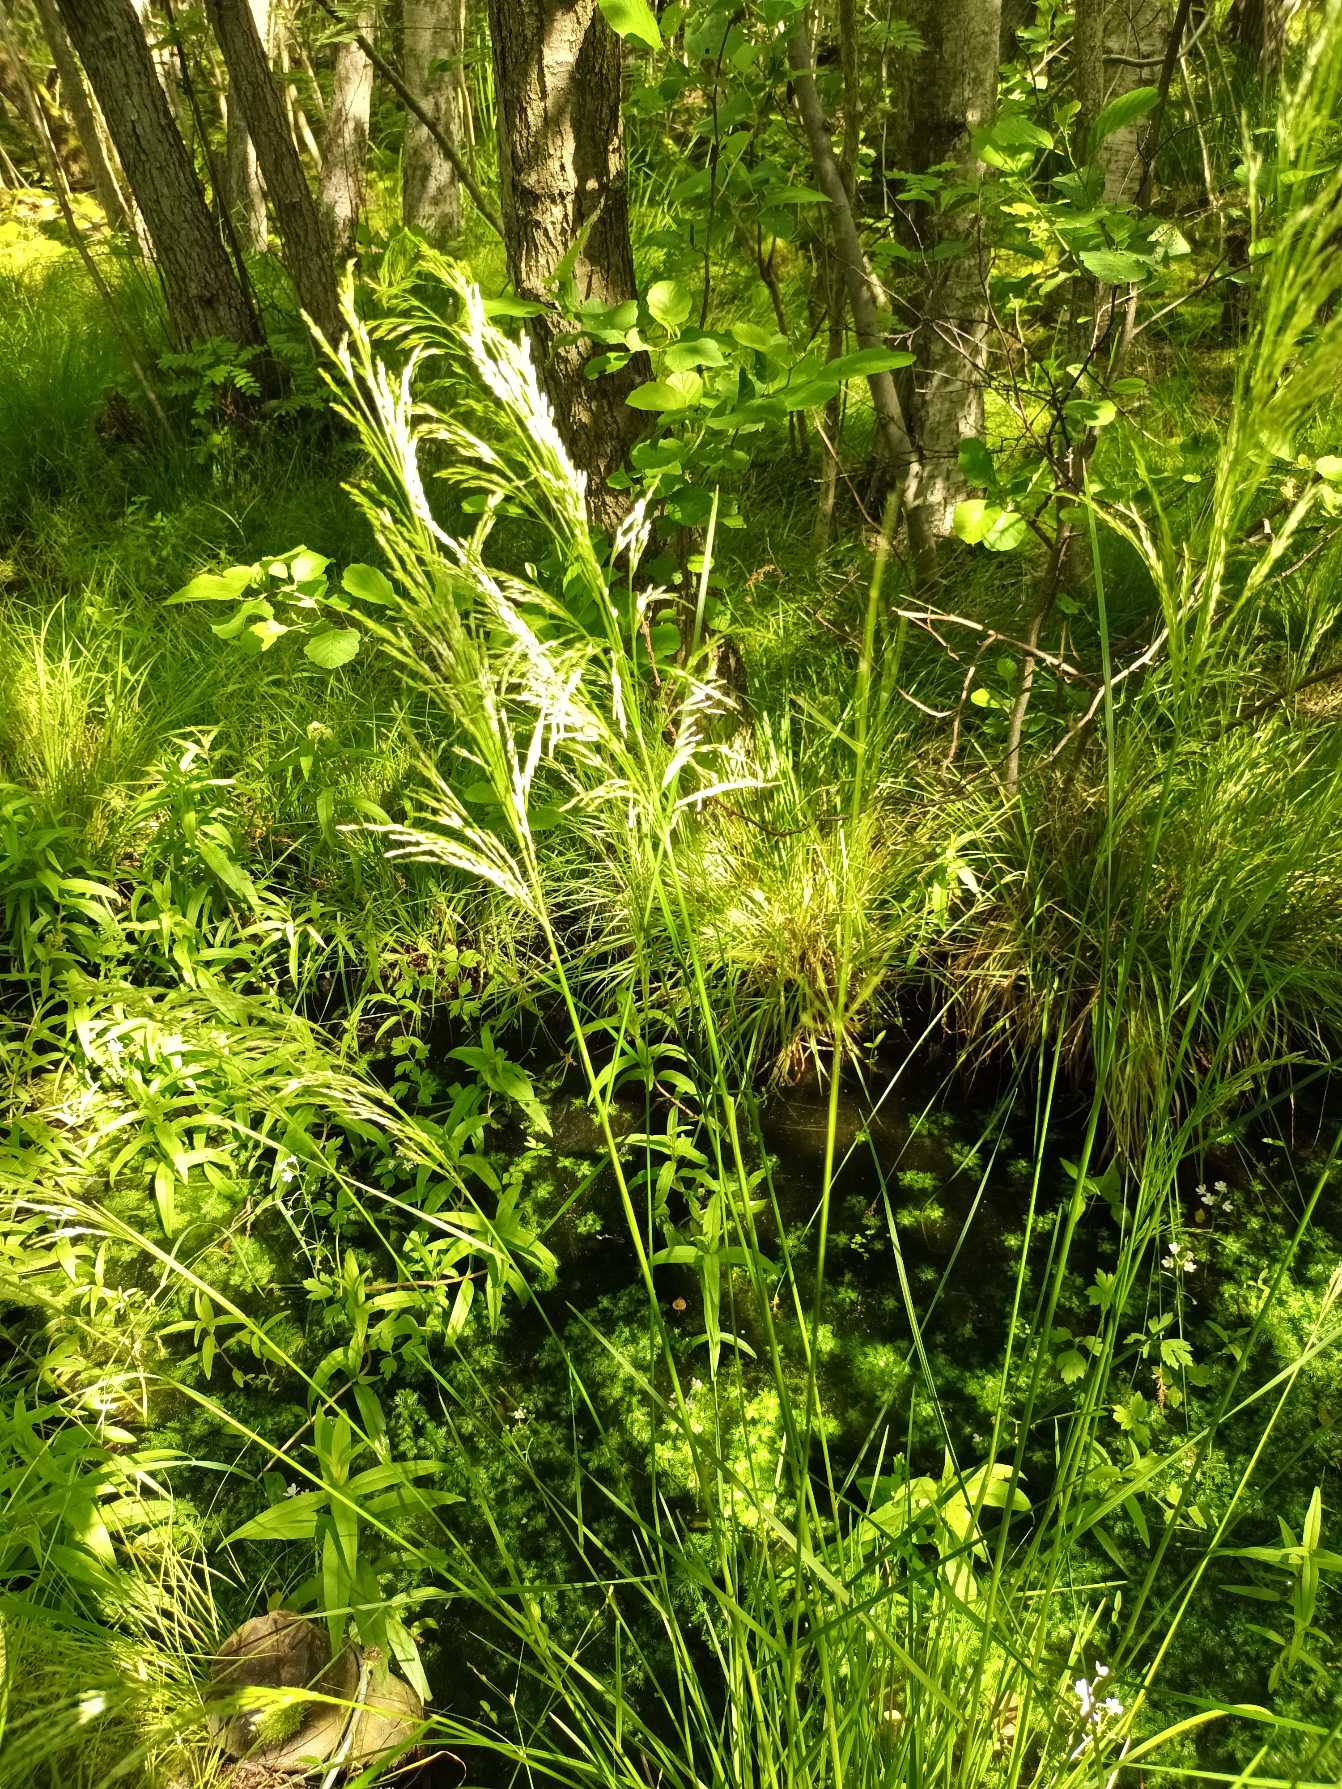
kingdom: Plantae
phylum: Tracheophyta
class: Liliopsida
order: Poales
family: Poaceae
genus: Deschampsia
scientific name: Deschampsia cespitosa
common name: Mose-bunke
